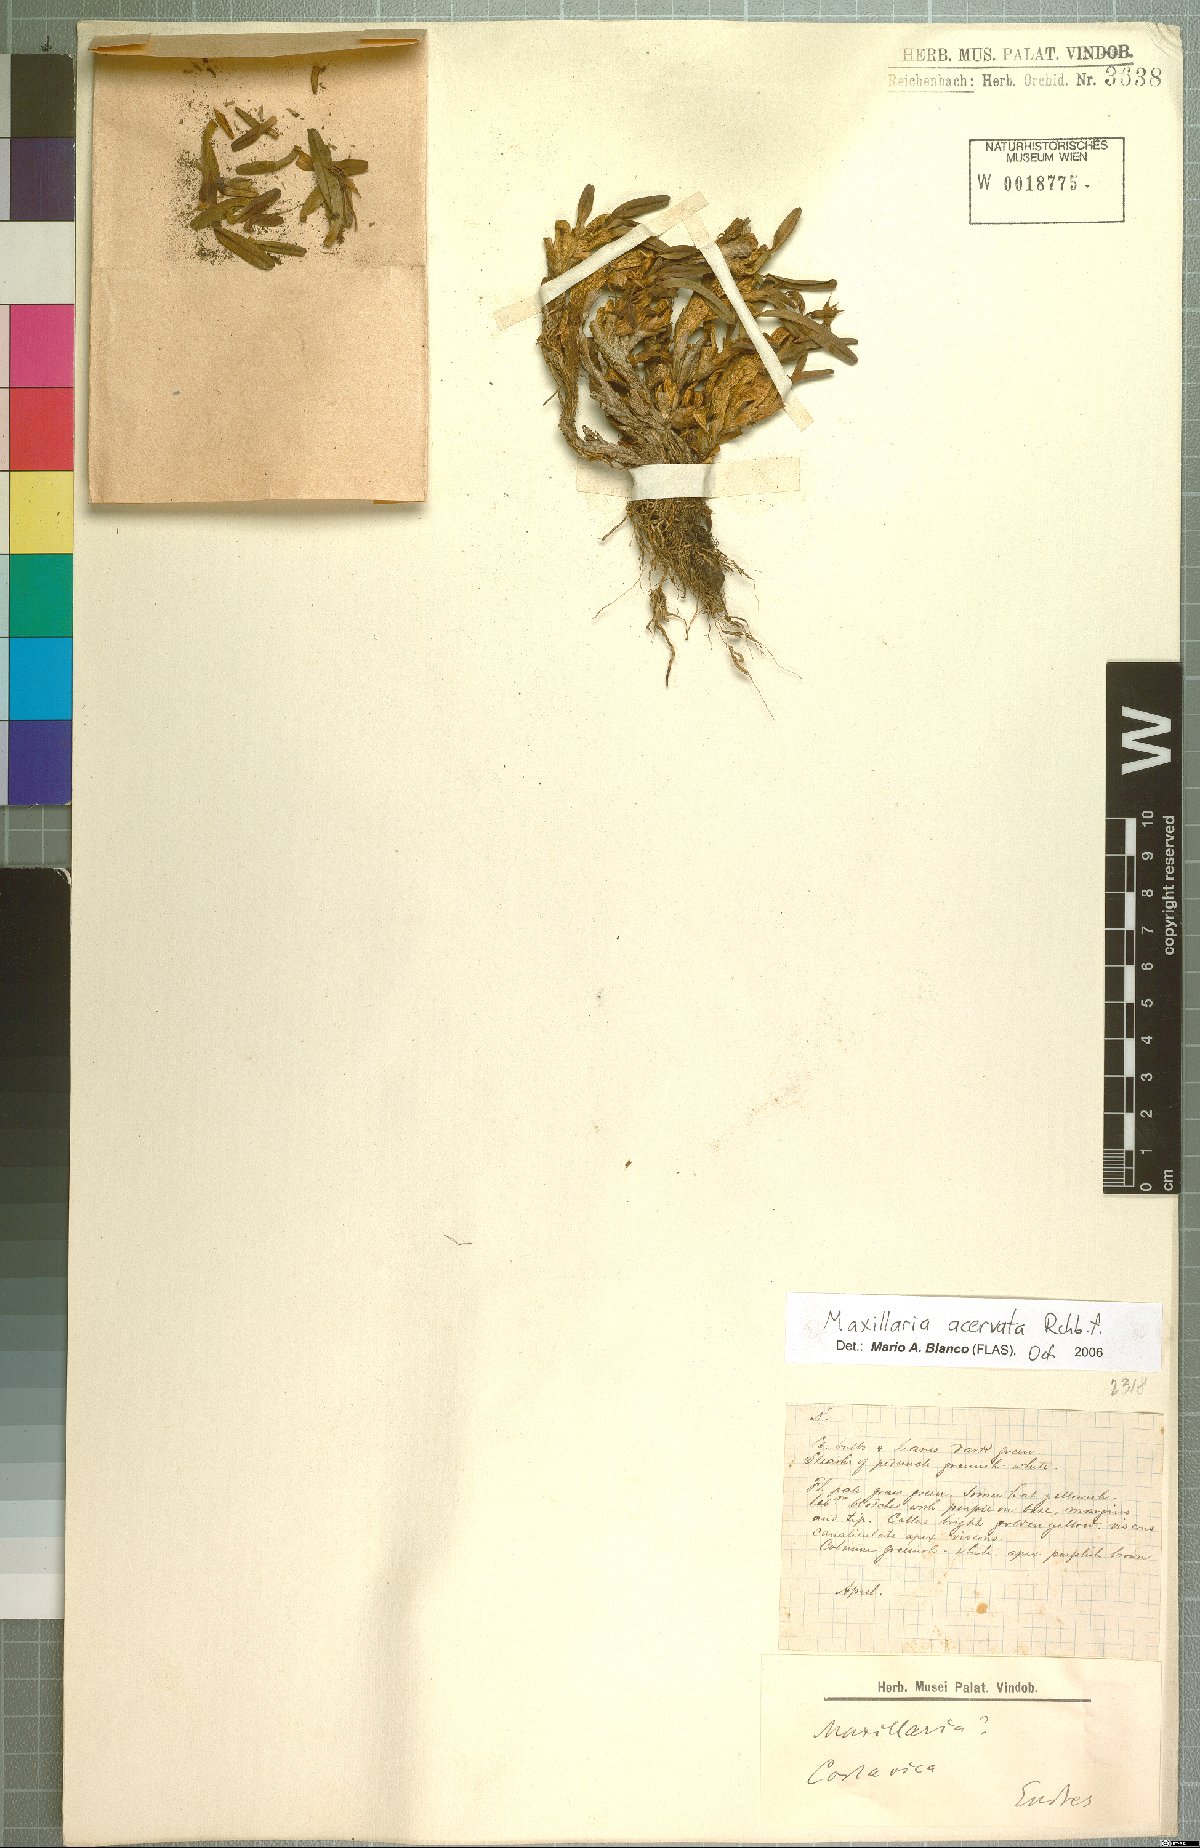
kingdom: Plantae
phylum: Tracheophyta
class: Liliopsida
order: Asparagales
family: Orchidaceae
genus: Maxillaria
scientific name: Maxillaria acervata
